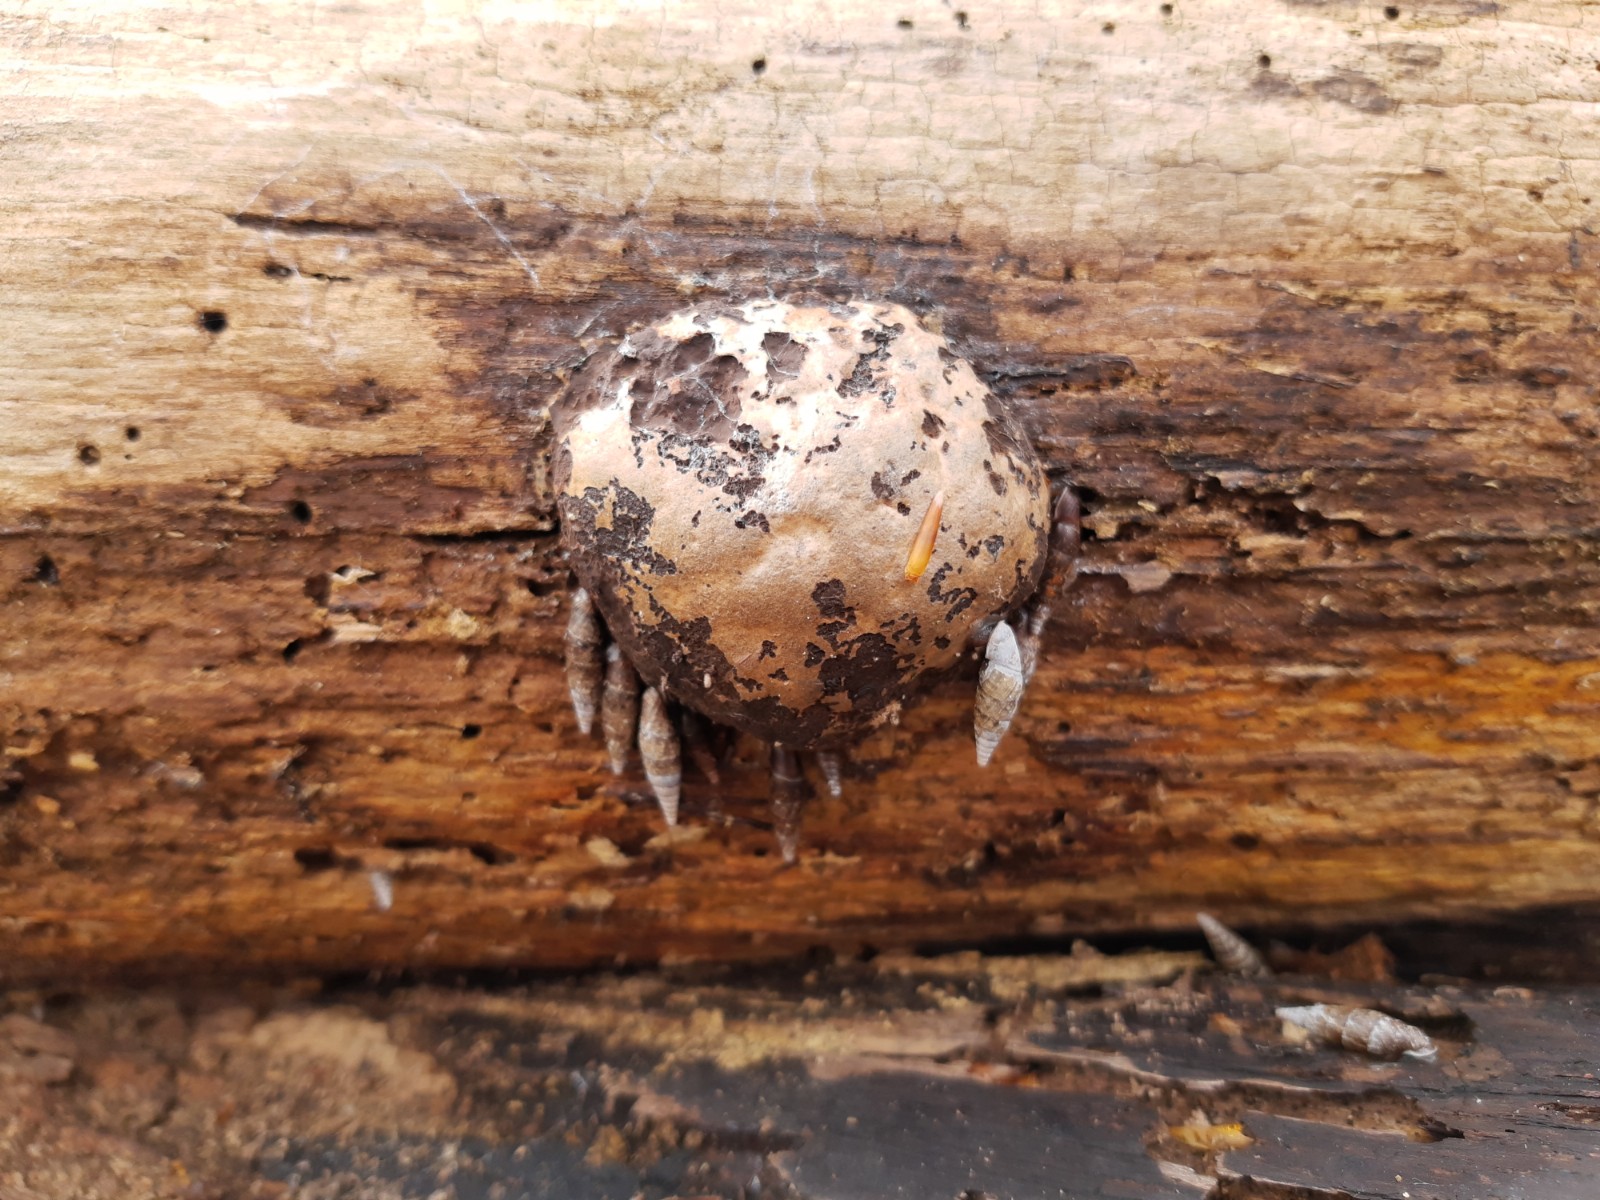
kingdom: Protozoa
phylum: Mycetozoa
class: Myxomycetes
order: Cribrariales
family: Tubiferaceae
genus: Reticularia
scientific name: Reticularia lycoperdon
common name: skinnende støvpude
